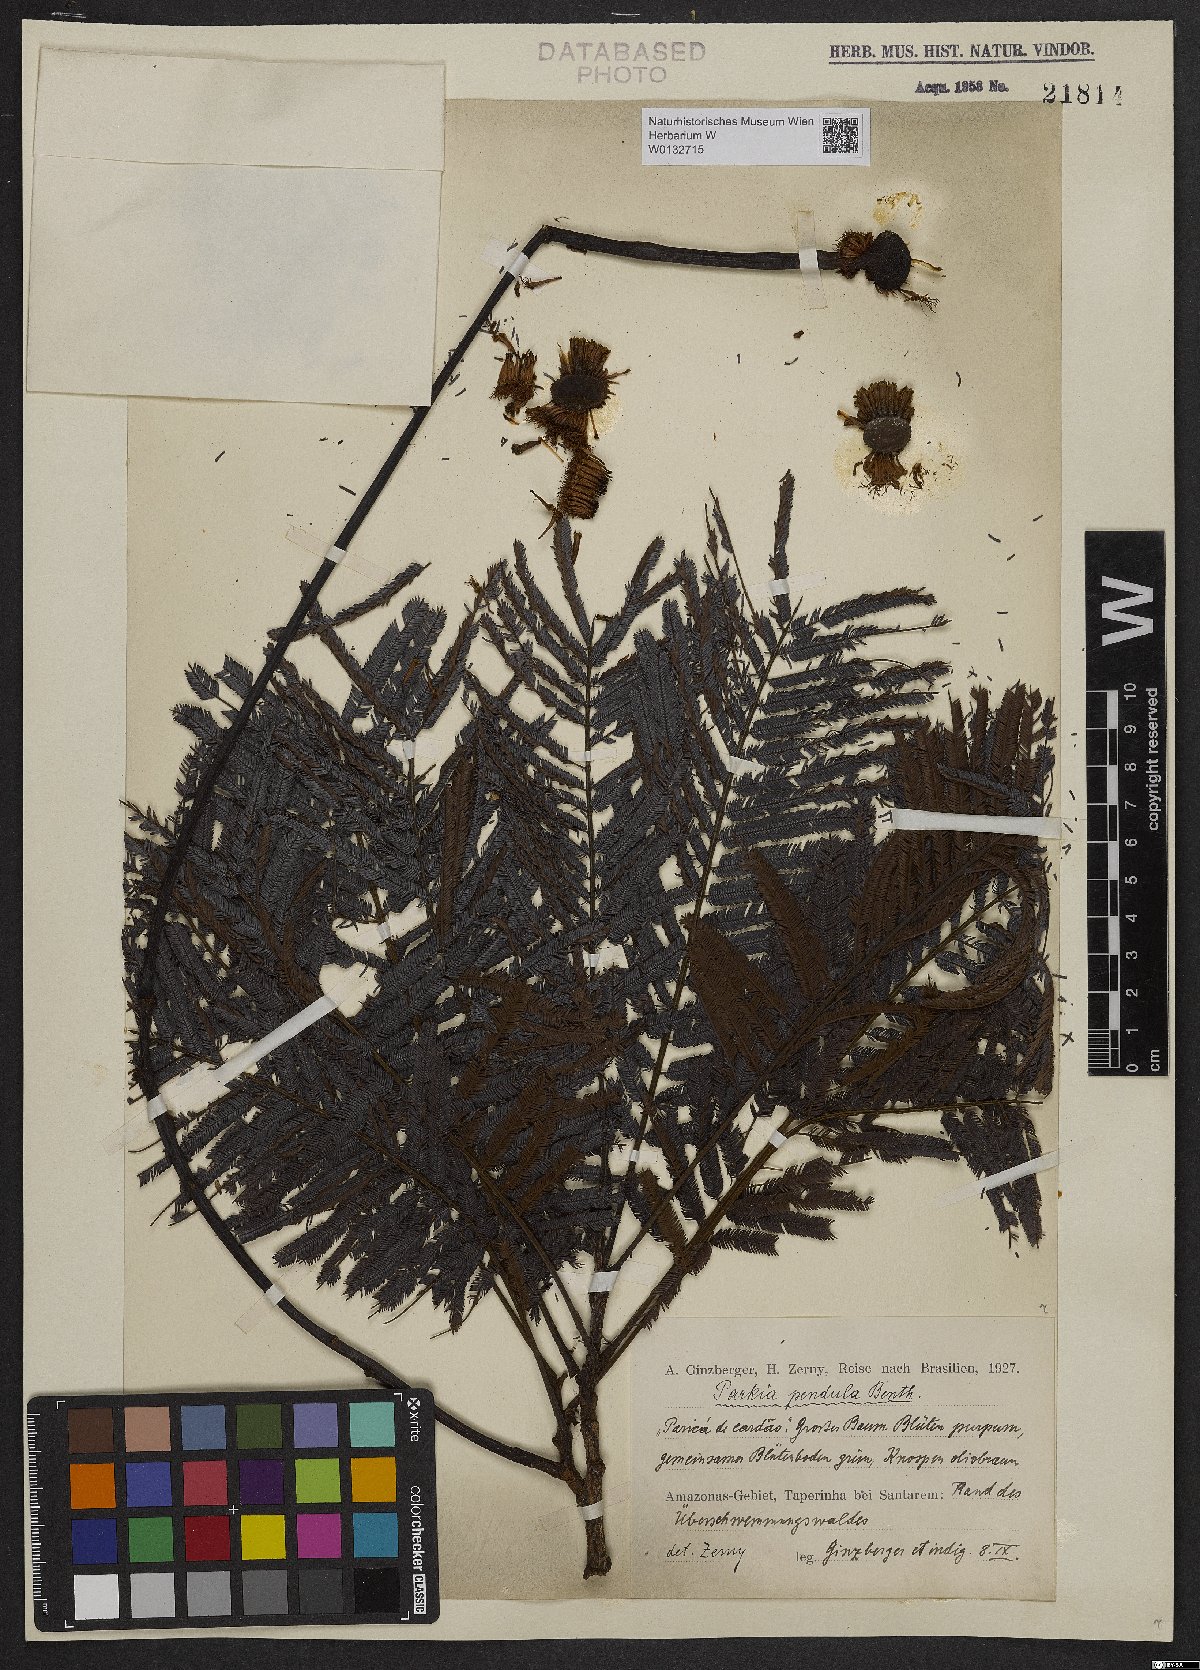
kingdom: Plantae
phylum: Tracheophyta
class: Magnoliopsida
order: Fabales
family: Fabaceae
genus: Parkia
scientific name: Parkia pendula
